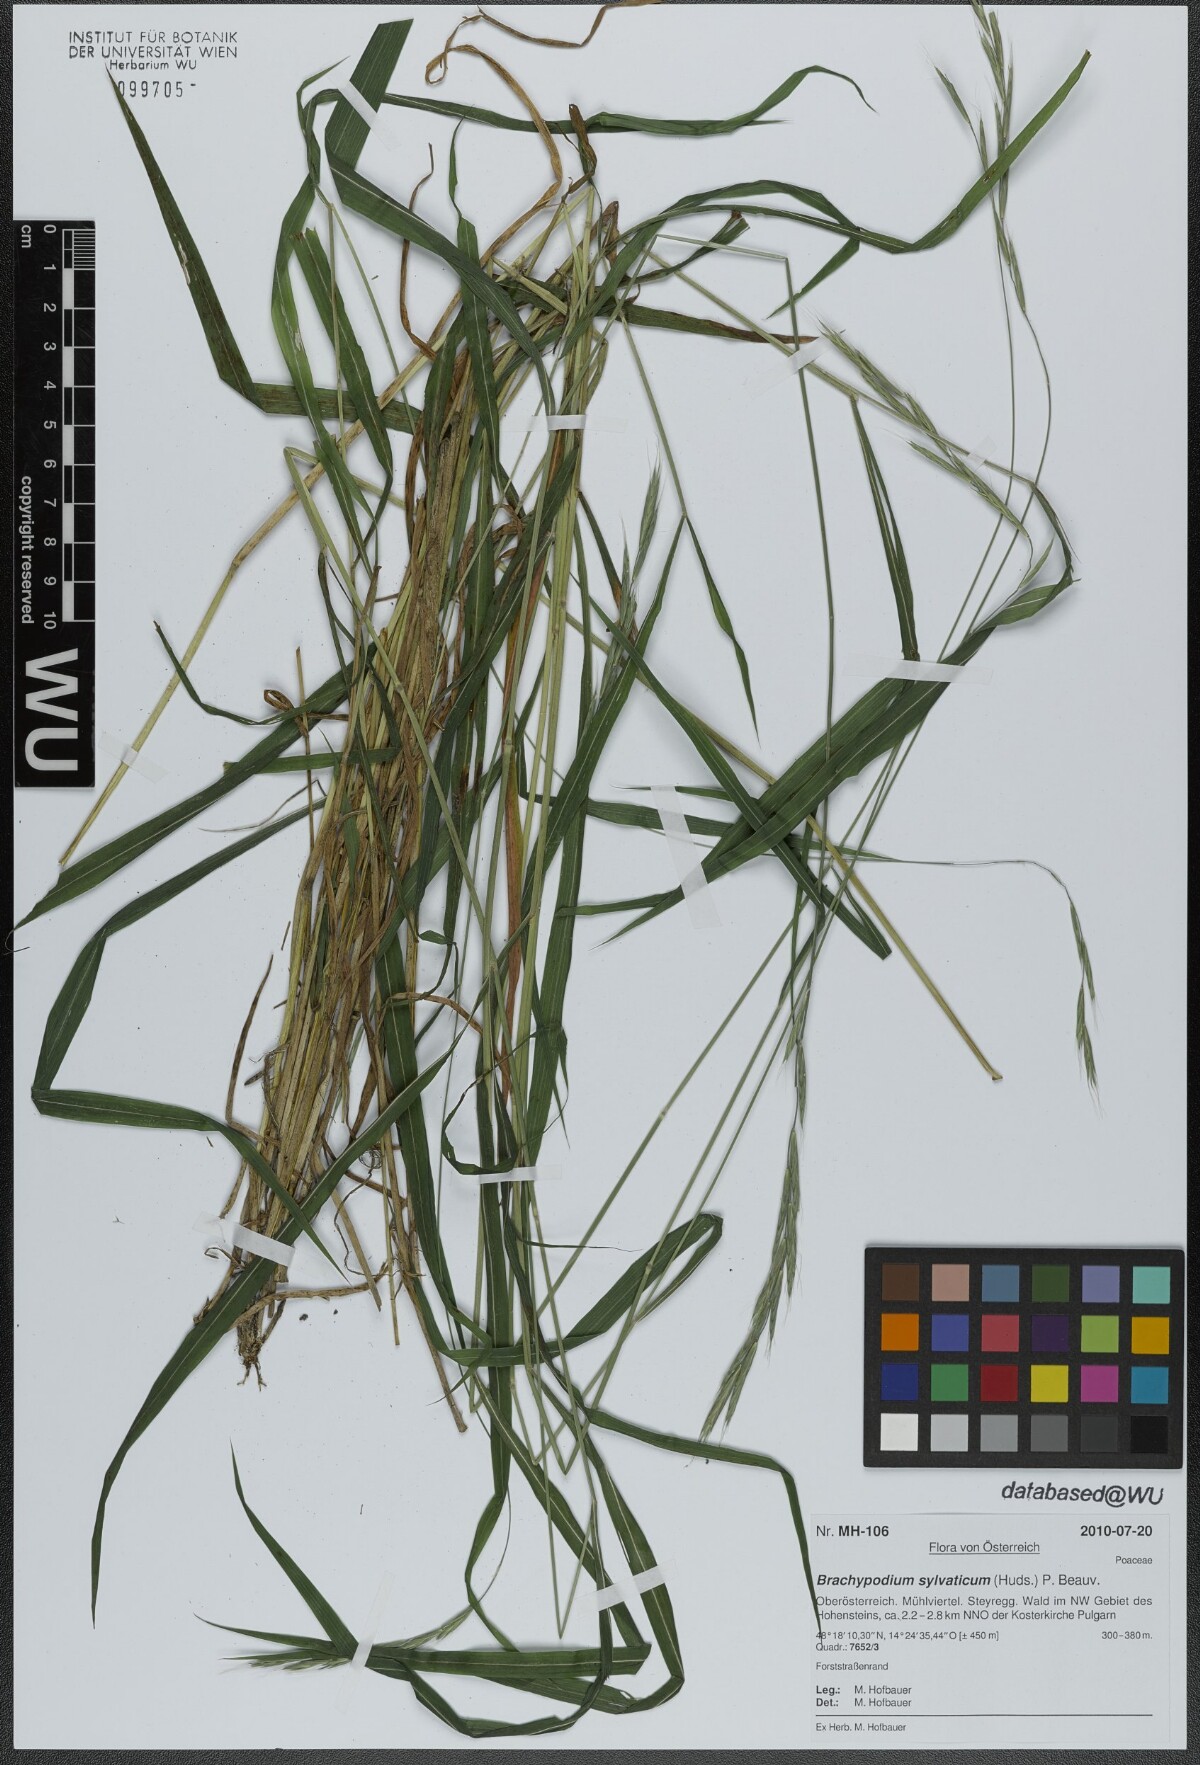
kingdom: Plantae
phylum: Tracheophyta
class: Liliopsida
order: Poales
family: Poaceae
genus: Brachypodium
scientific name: Brachypodium sylvaticum
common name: False-brome
